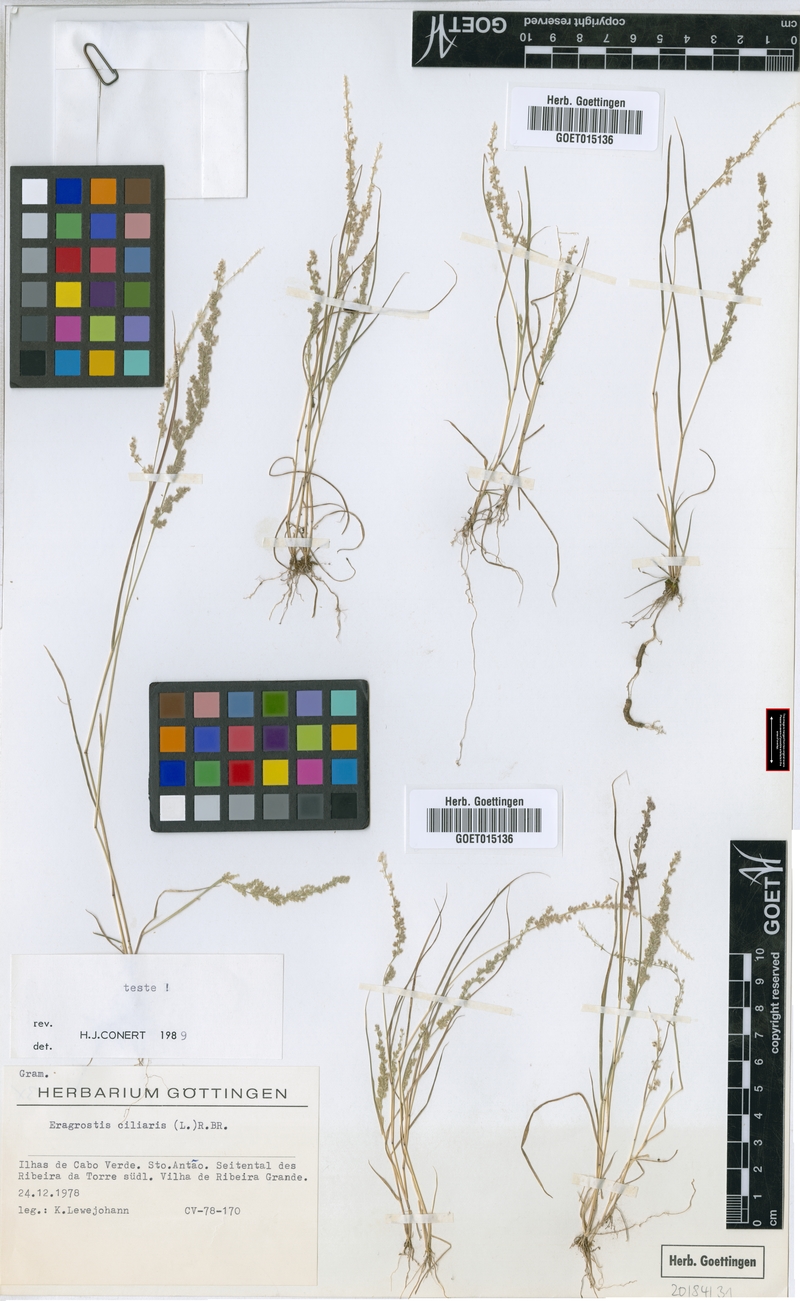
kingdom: Plantae
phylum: Tracheophyta
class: Liliopsida
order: Poales
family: Poaceae
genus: Eragrostis
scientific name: Eragrostis ciliaris
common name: Gophertail lovegrass
